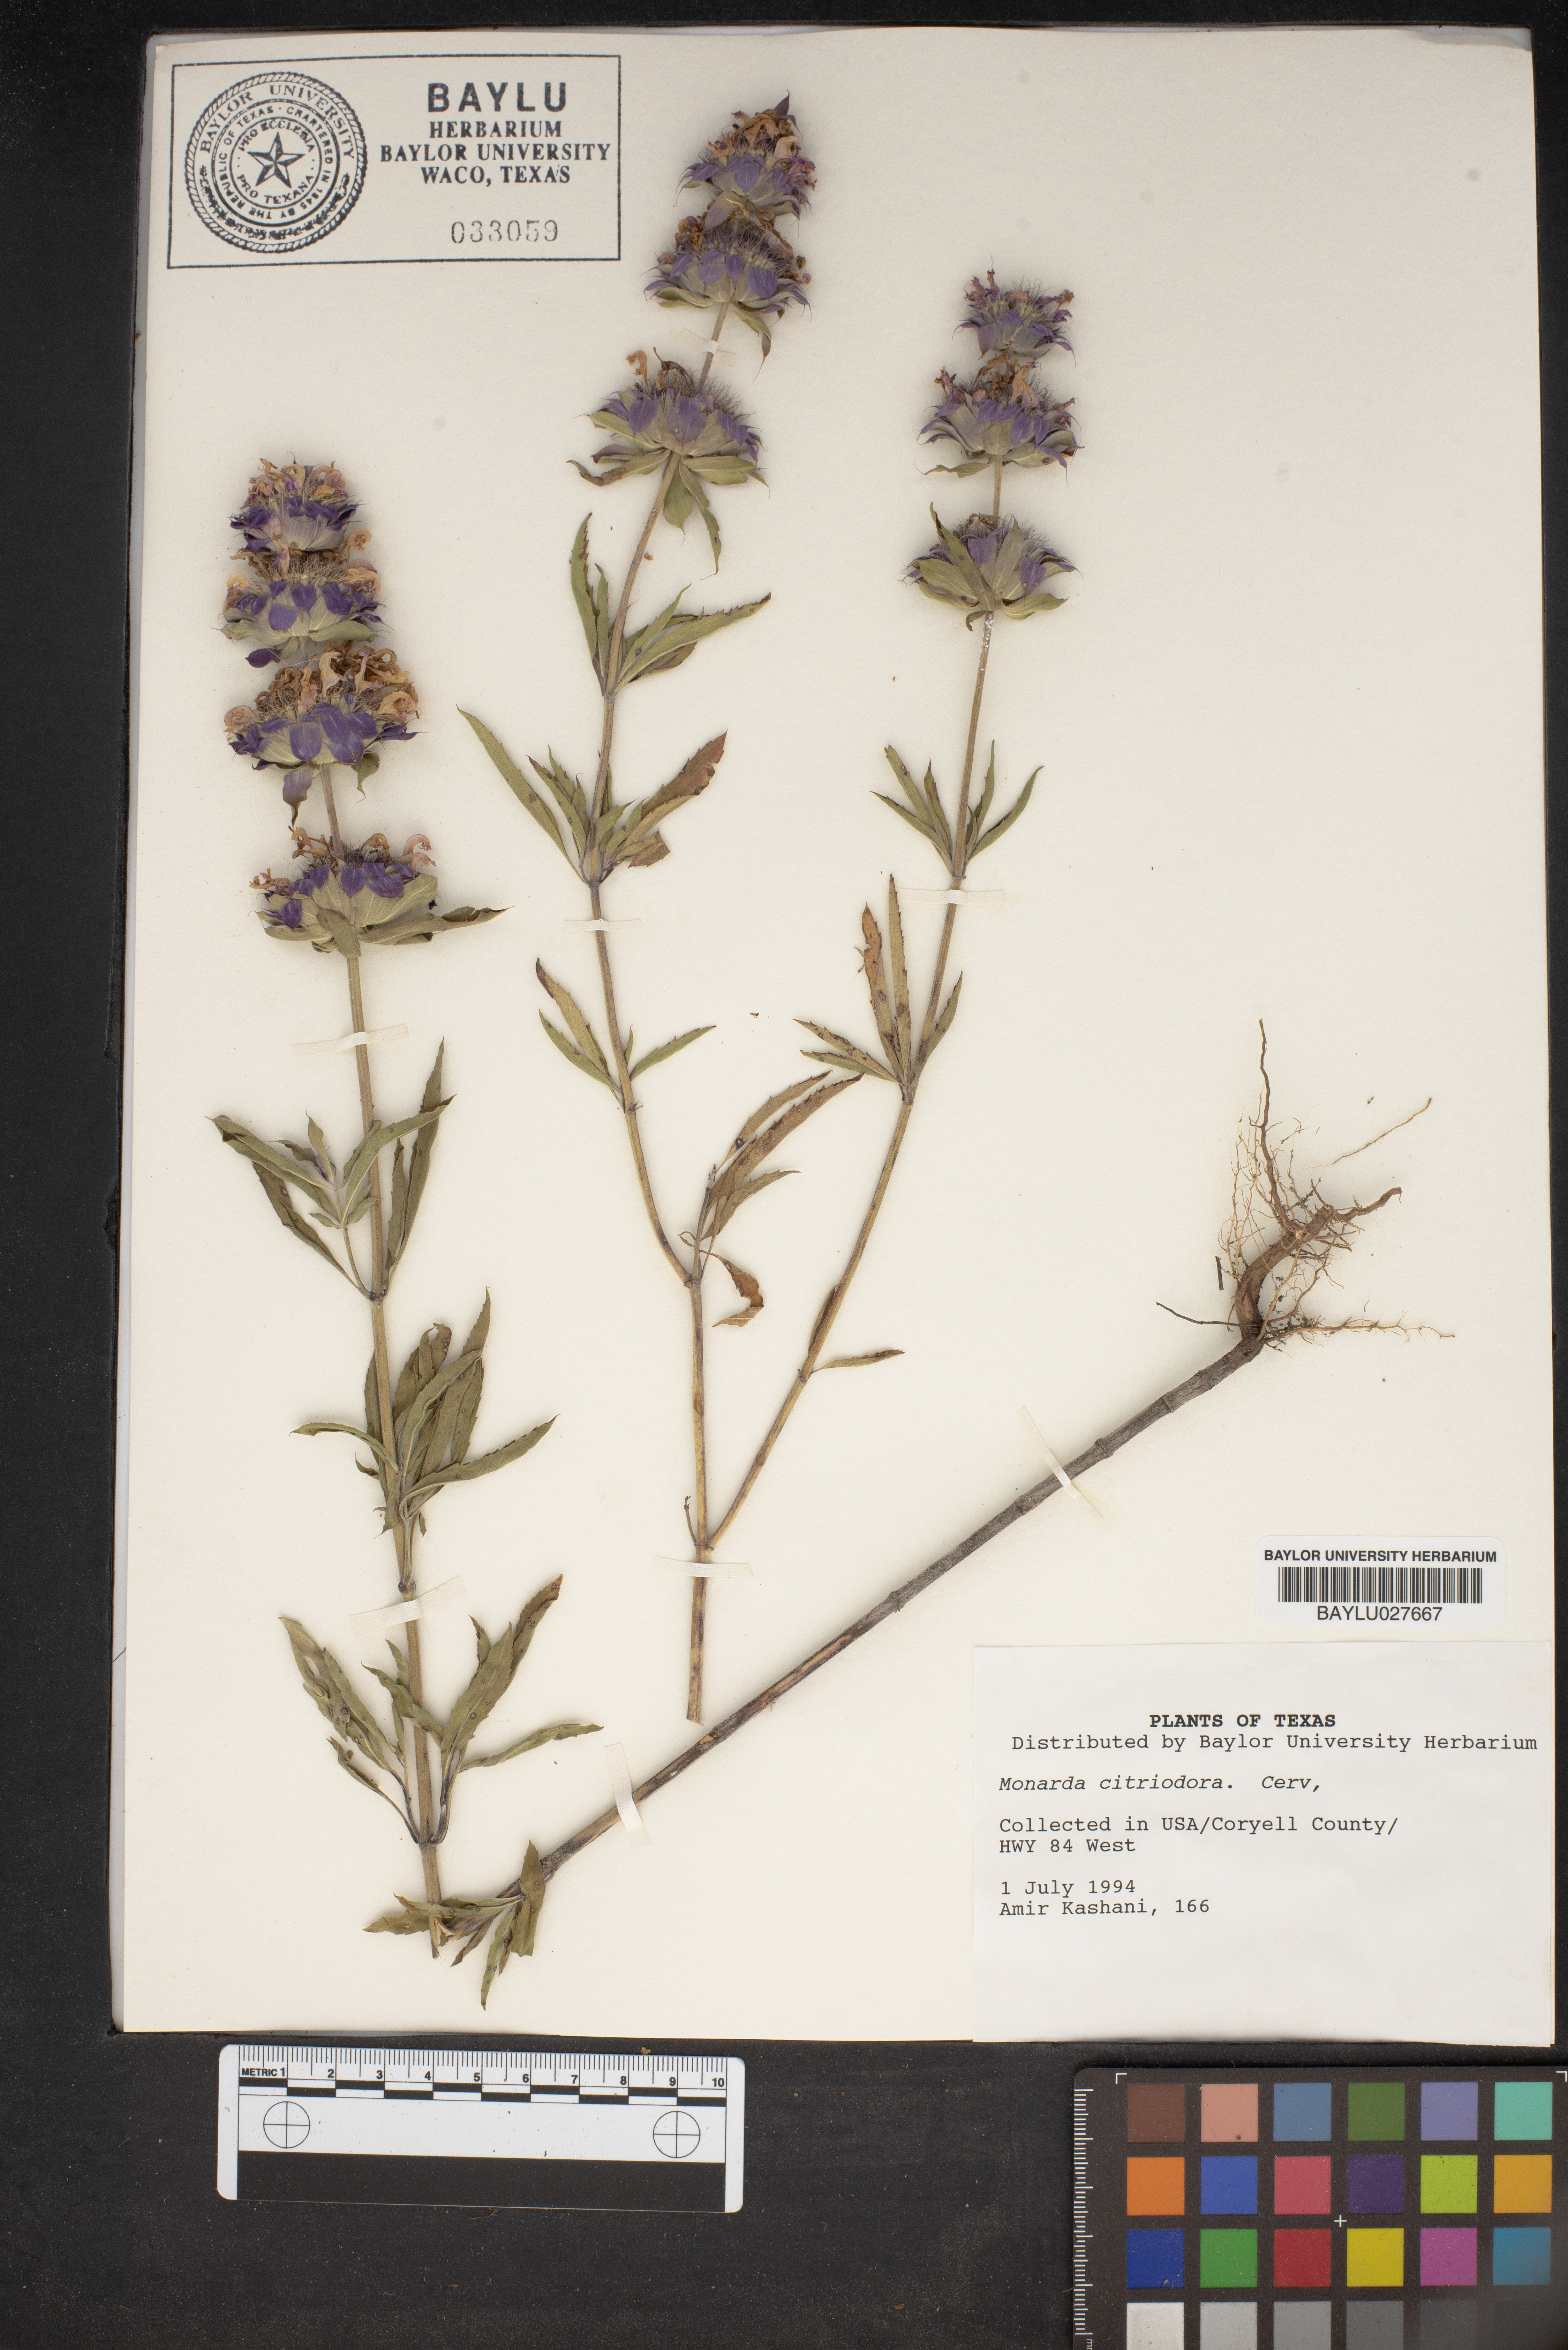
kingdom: Plantae
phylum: Tracheophyta
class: Magnoliopsida
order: Lamiales
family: Lamiaceae
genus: Monarda
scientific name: Monarda citriodora
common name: Lemon beebalm
